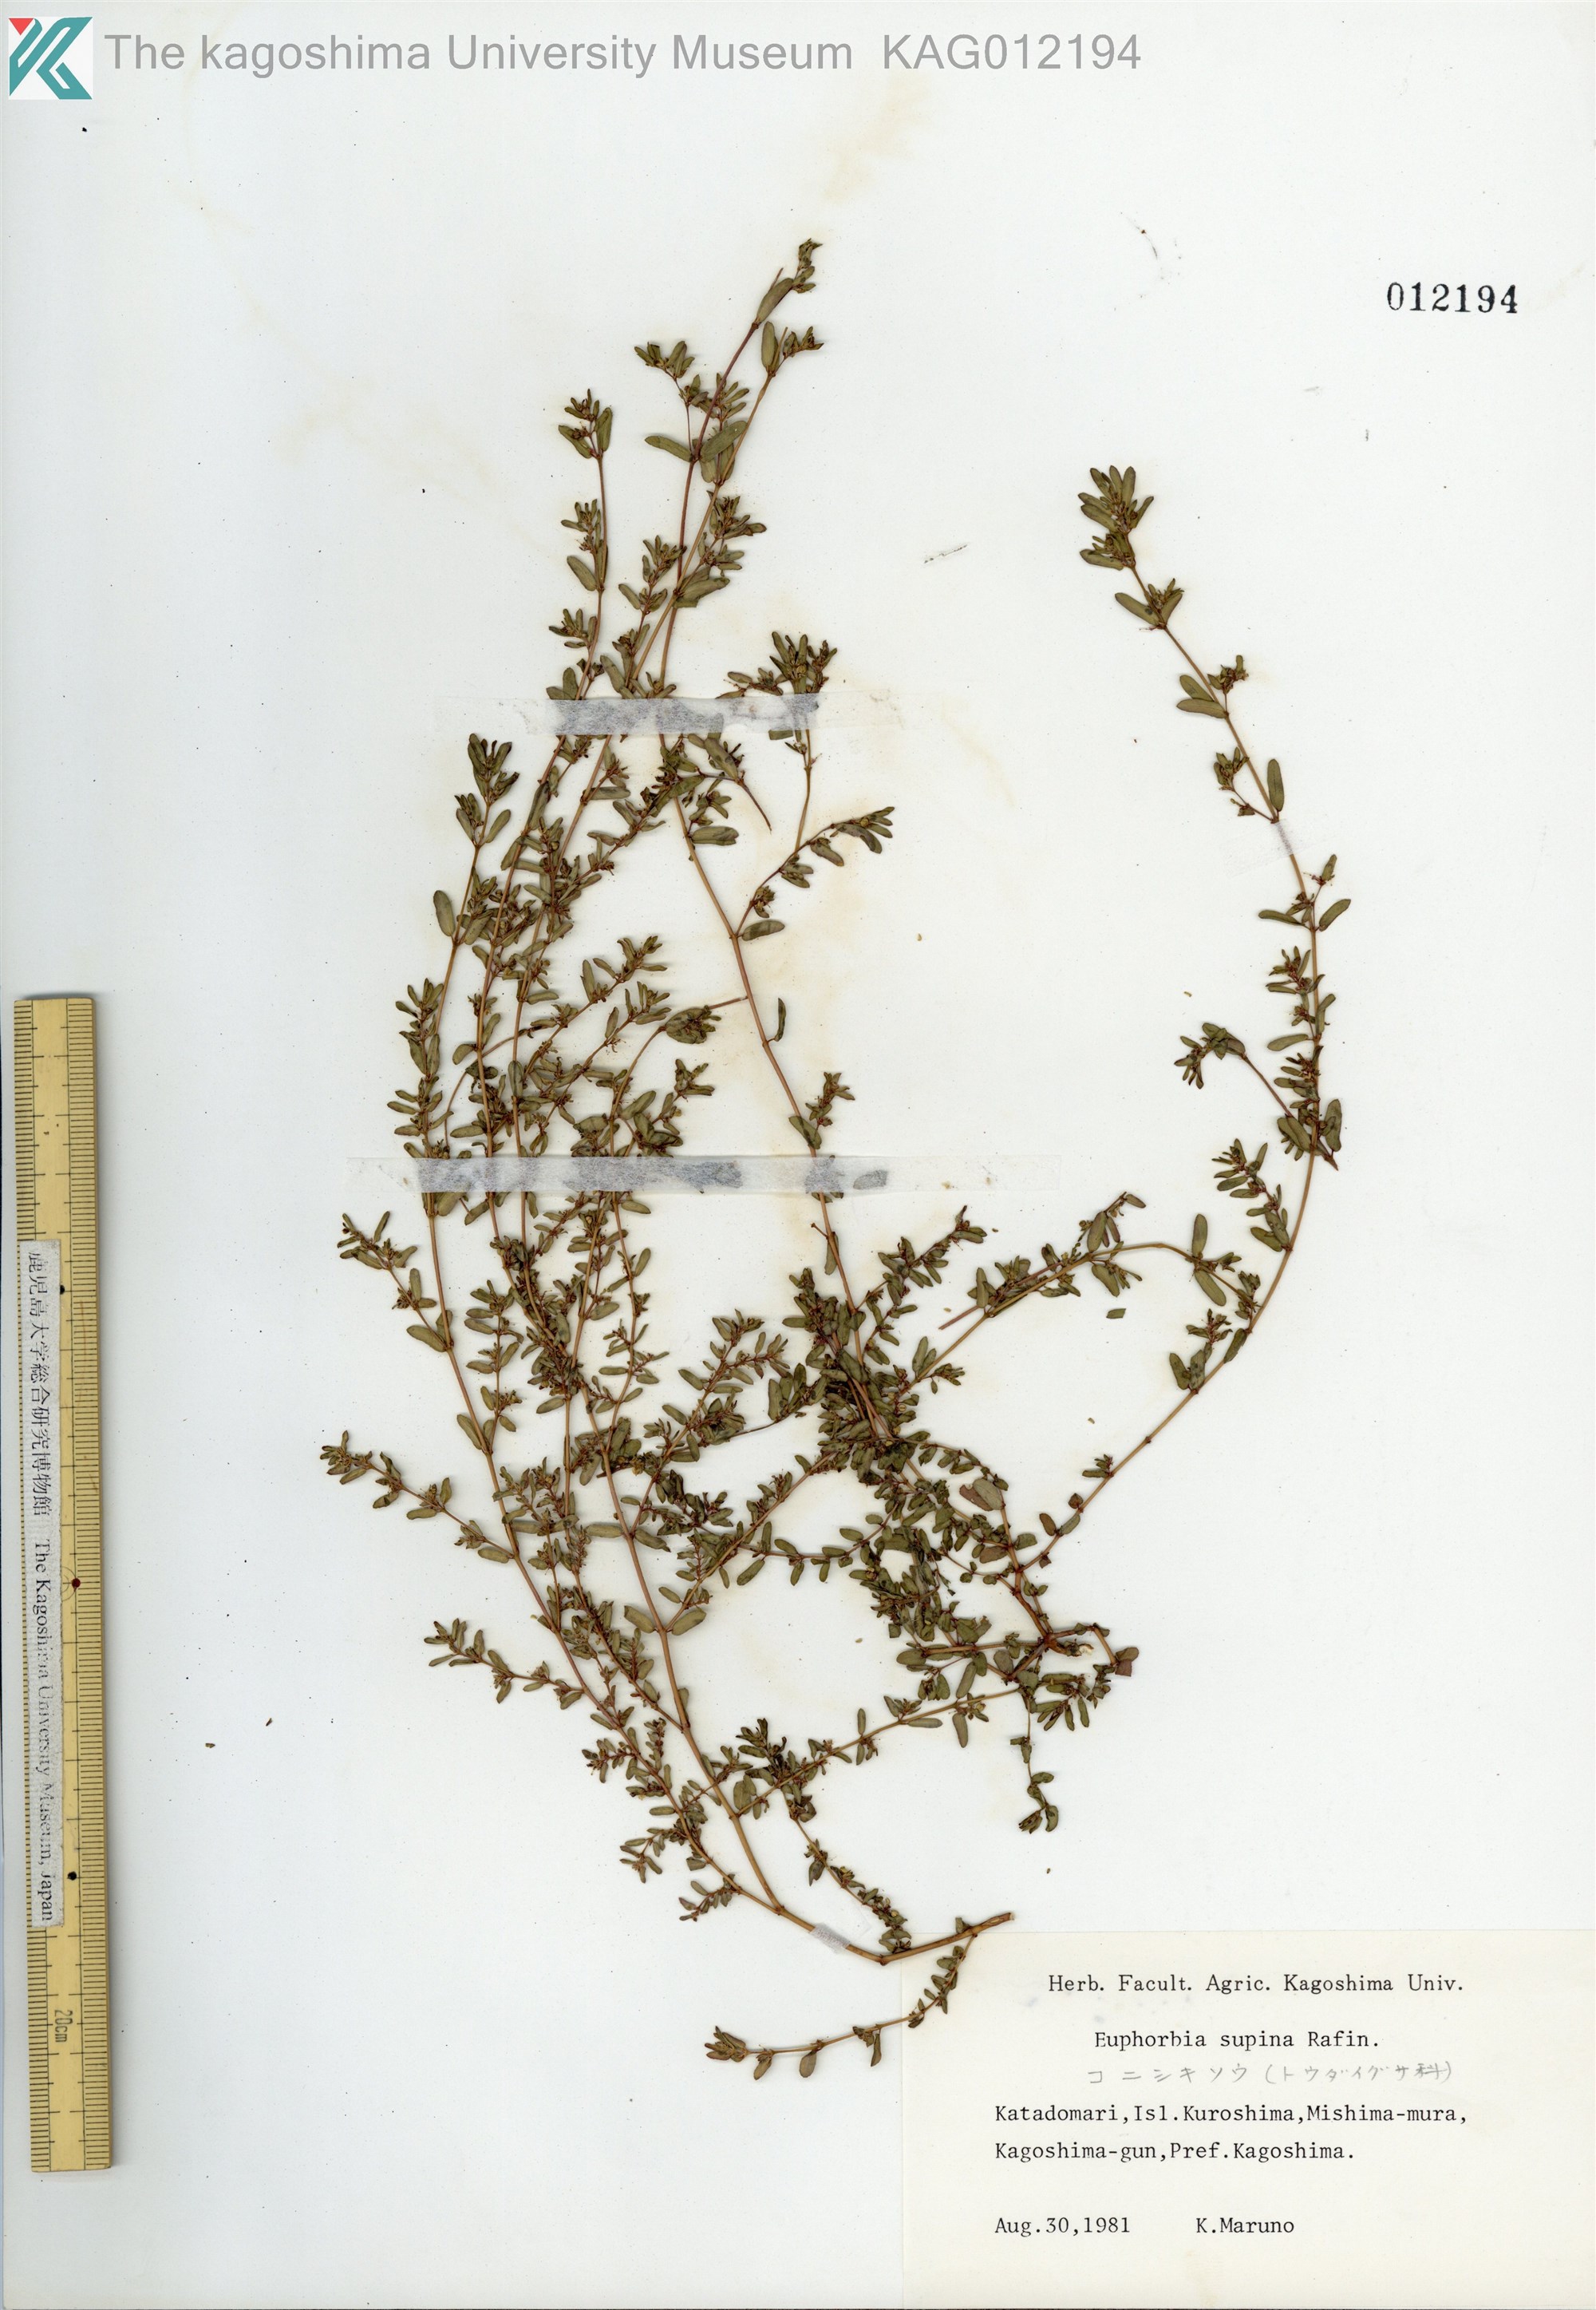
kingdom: Plantae
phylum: Tracheophyta
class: Magnoliopsida
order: Malpighiales
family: Euphorbiaceae
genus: Euphorbia
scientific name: Euphorbia maculata
